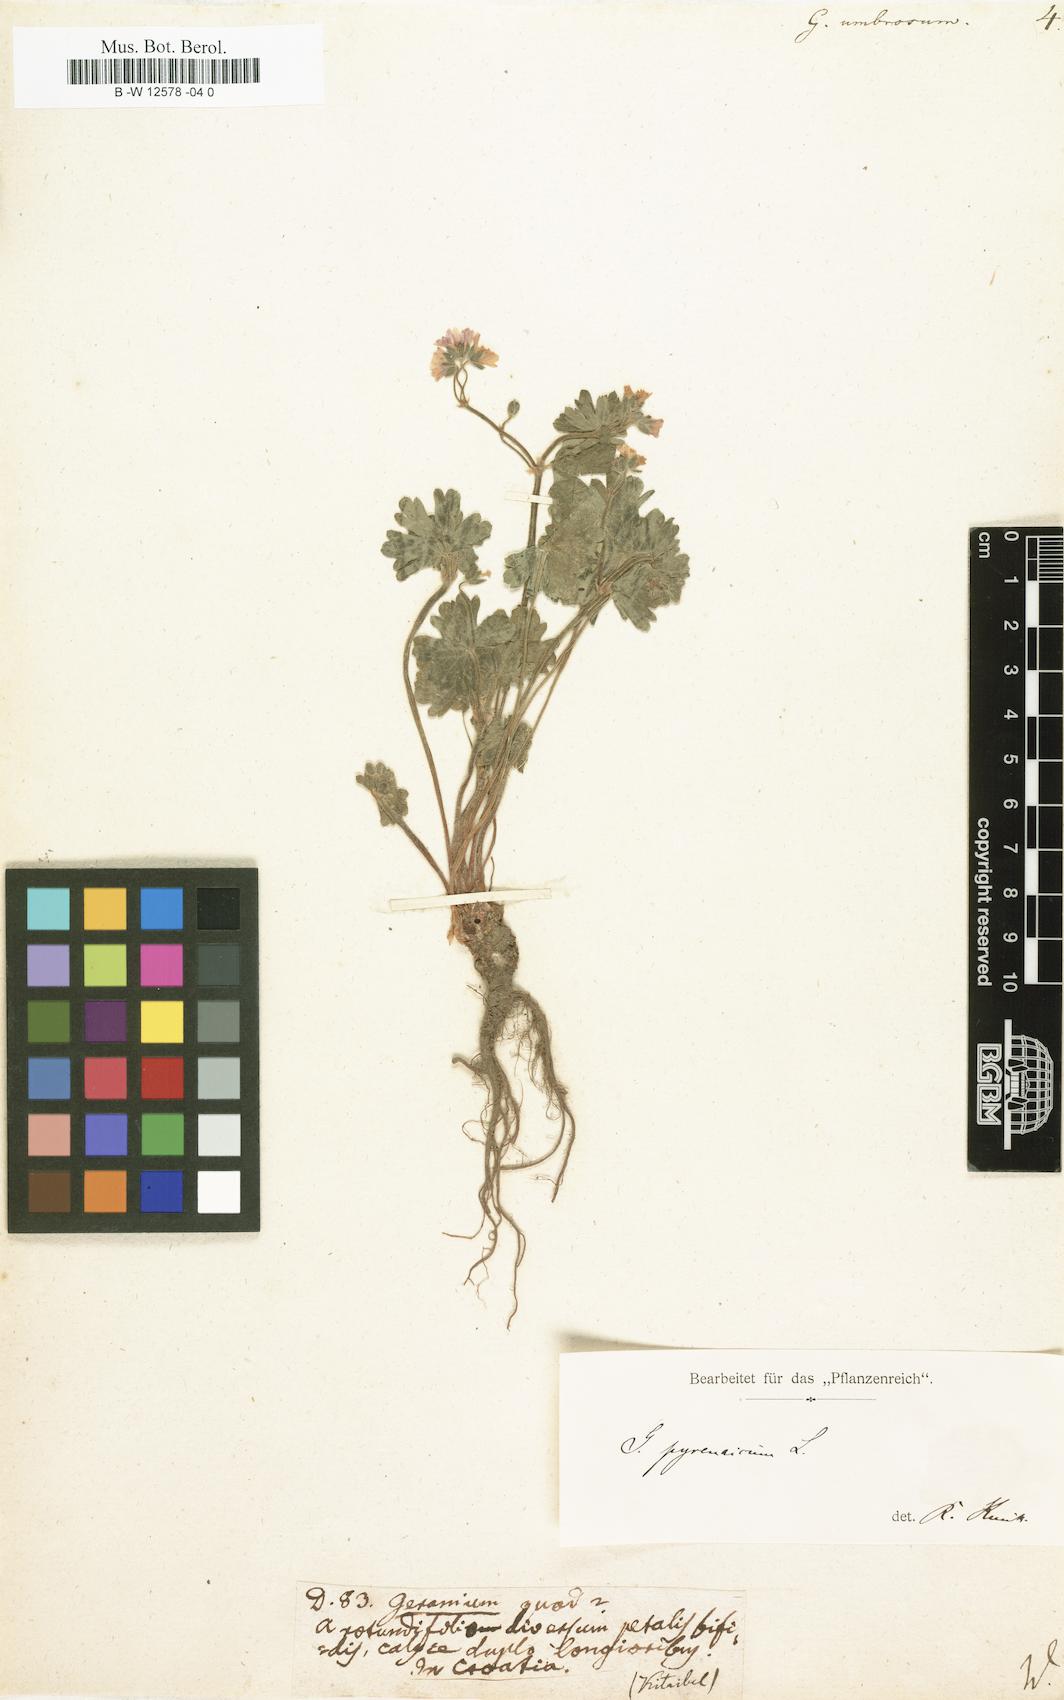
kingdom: Plantae
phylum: Tracheophyta
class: Magnoliopsida
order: Geraniales
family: Geraniaceae
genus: Geranium
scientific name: Geranium pyrenaicum
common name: Hedgerow crane's-bill
